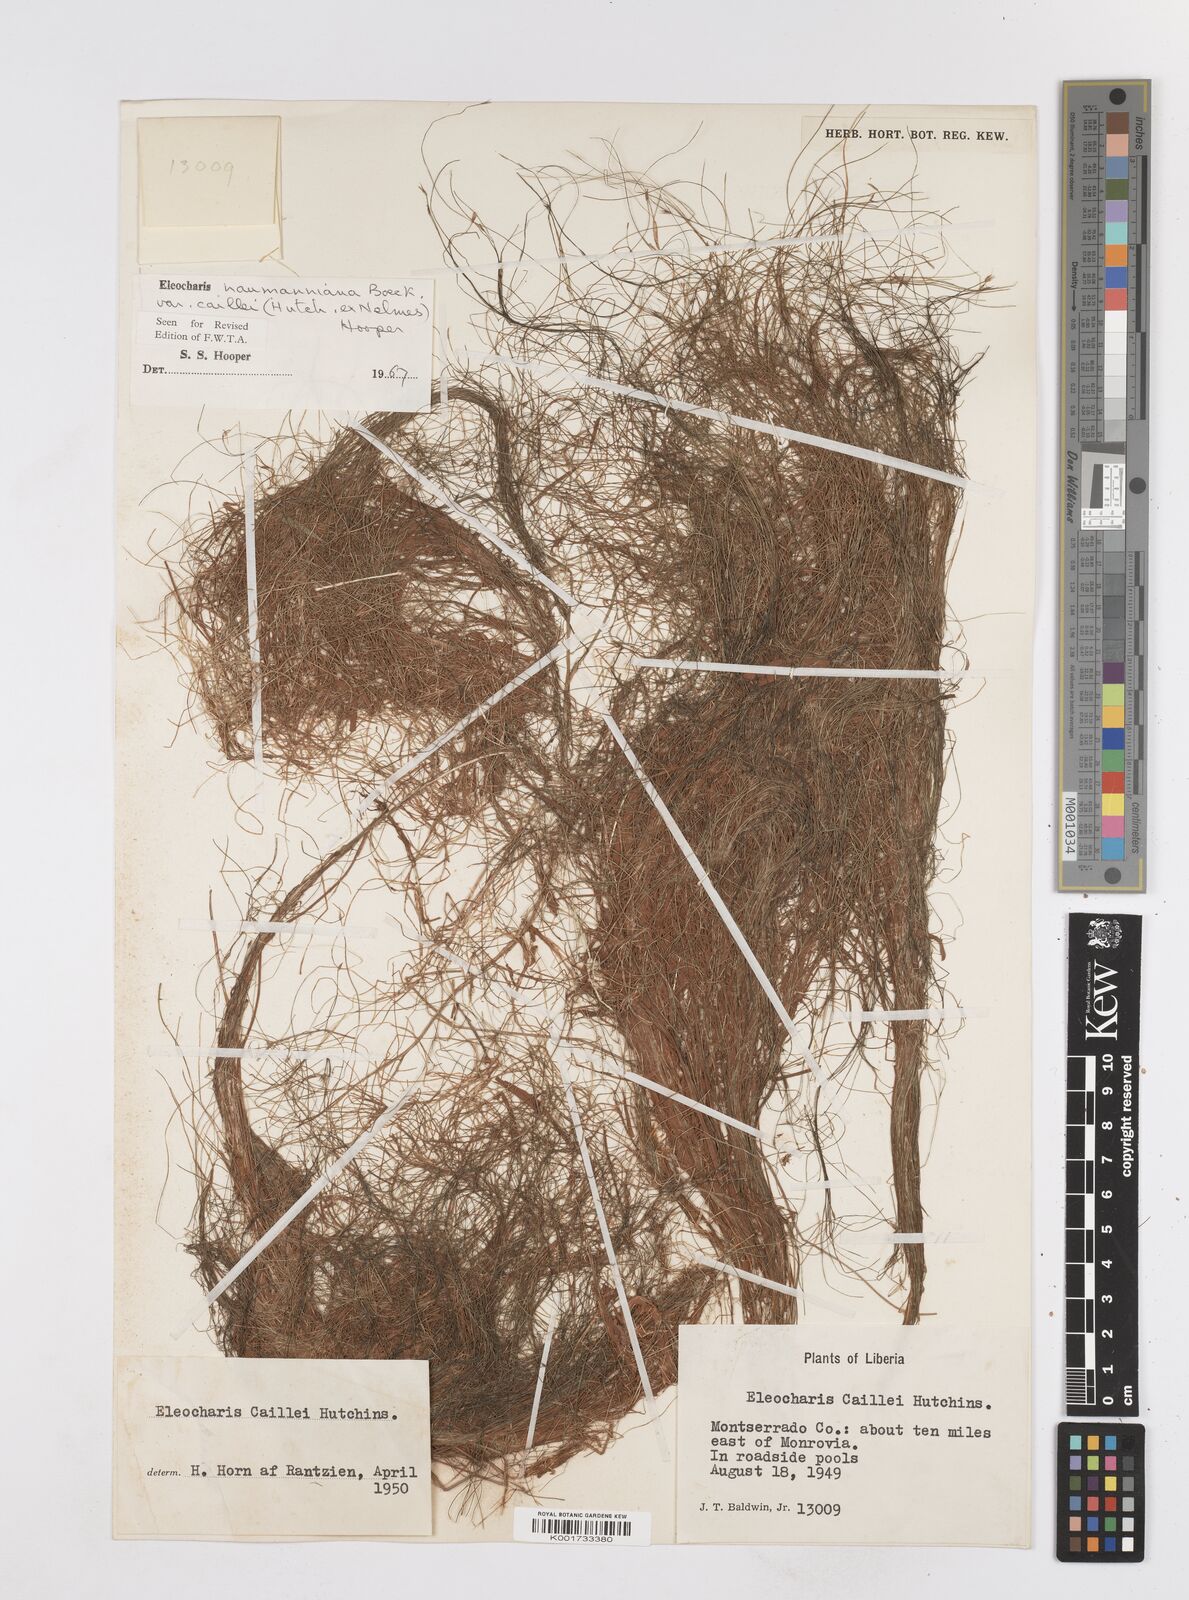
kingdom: Plantae
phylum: Tracheophyta
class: Liliopsida
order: Poales
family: Cyperaceae
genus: Eleocharis
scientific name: Eleocharis naumanniana
